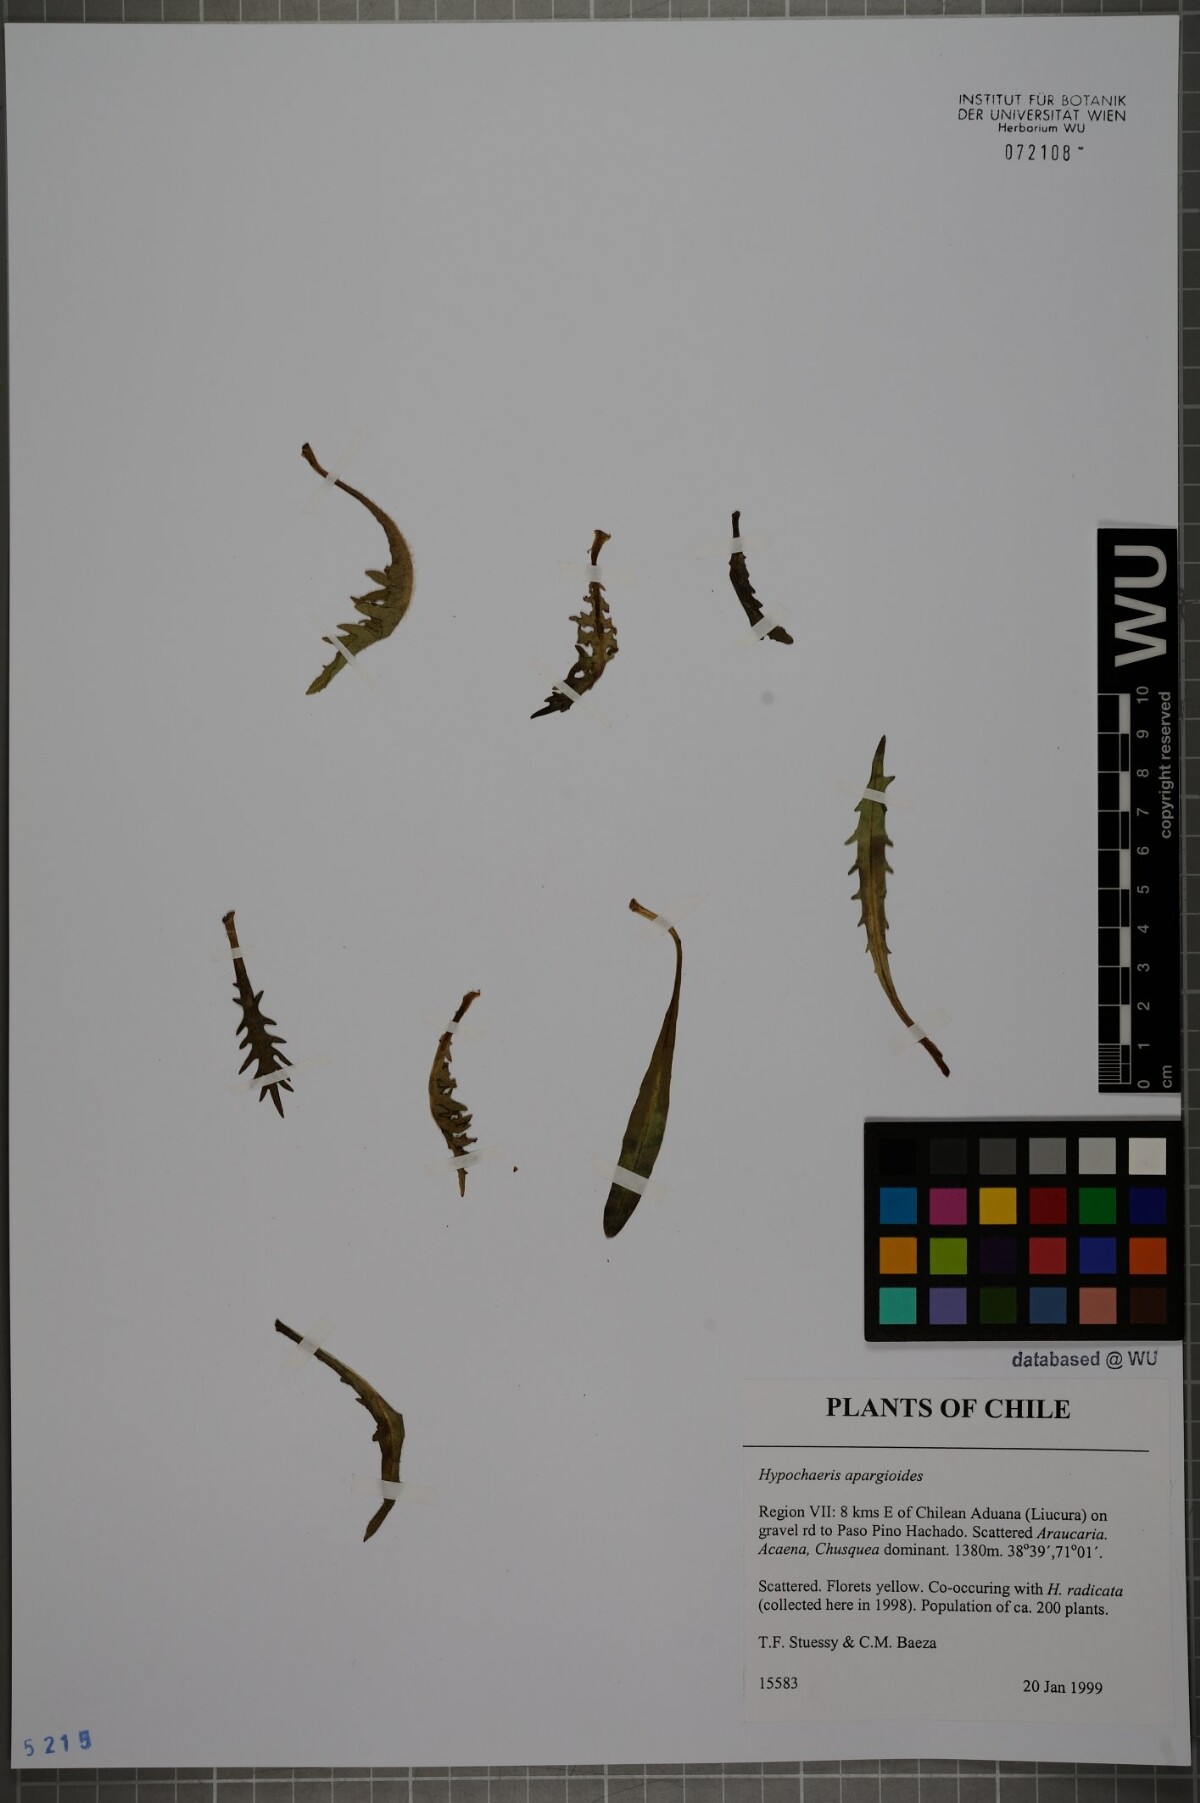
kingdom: Plantae
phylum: Tracheophyta
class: Magnoliopsida
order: Asterales
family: Asteraceae
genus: Hypochaeris
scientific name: Hypochaeris apargioides
